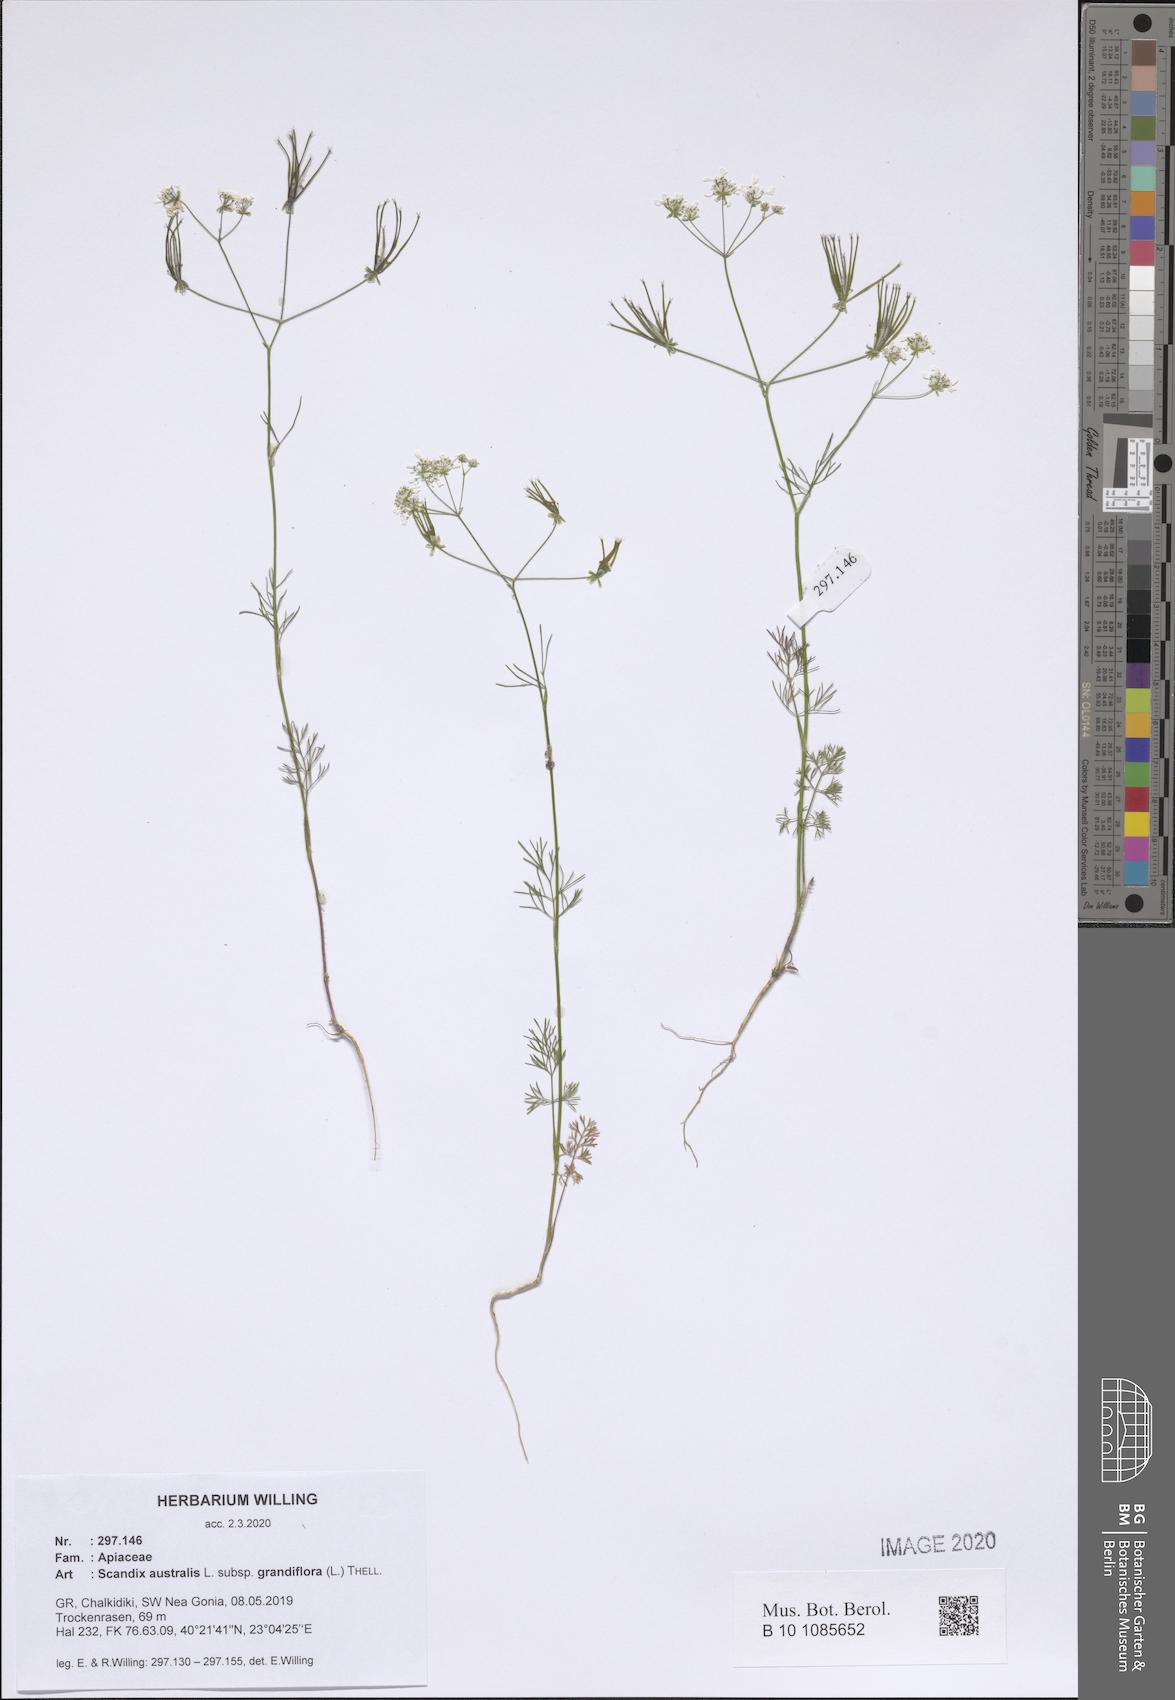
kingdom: Plantae
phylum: Tracheophyta
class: Magnoliopsida
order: Apiales
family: Apiaceae
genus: Scandix
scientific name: Scandix australis
